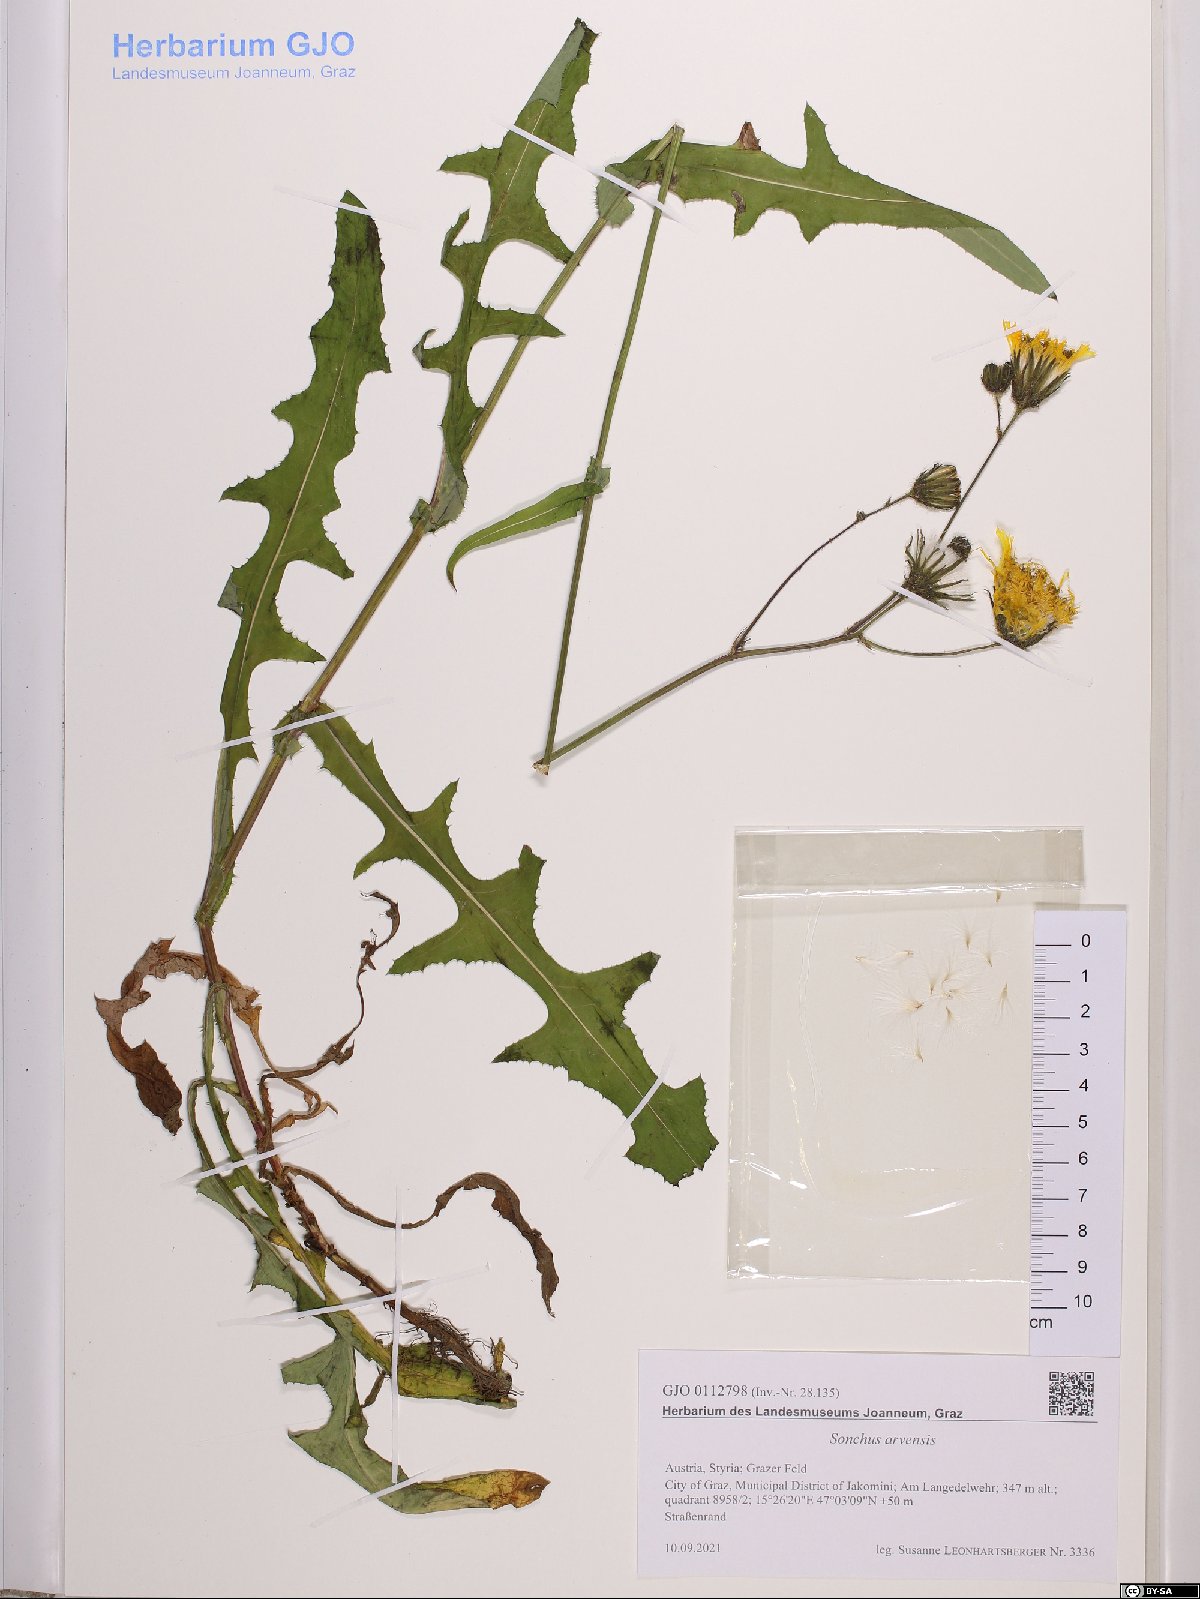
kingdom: Plantae
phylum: Tracheophyta
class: Magnoliopsida
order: Asterales
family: Asteraceae
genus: Sonchus
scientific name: Sonchus arvensis
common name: Perennial sow-thistle
